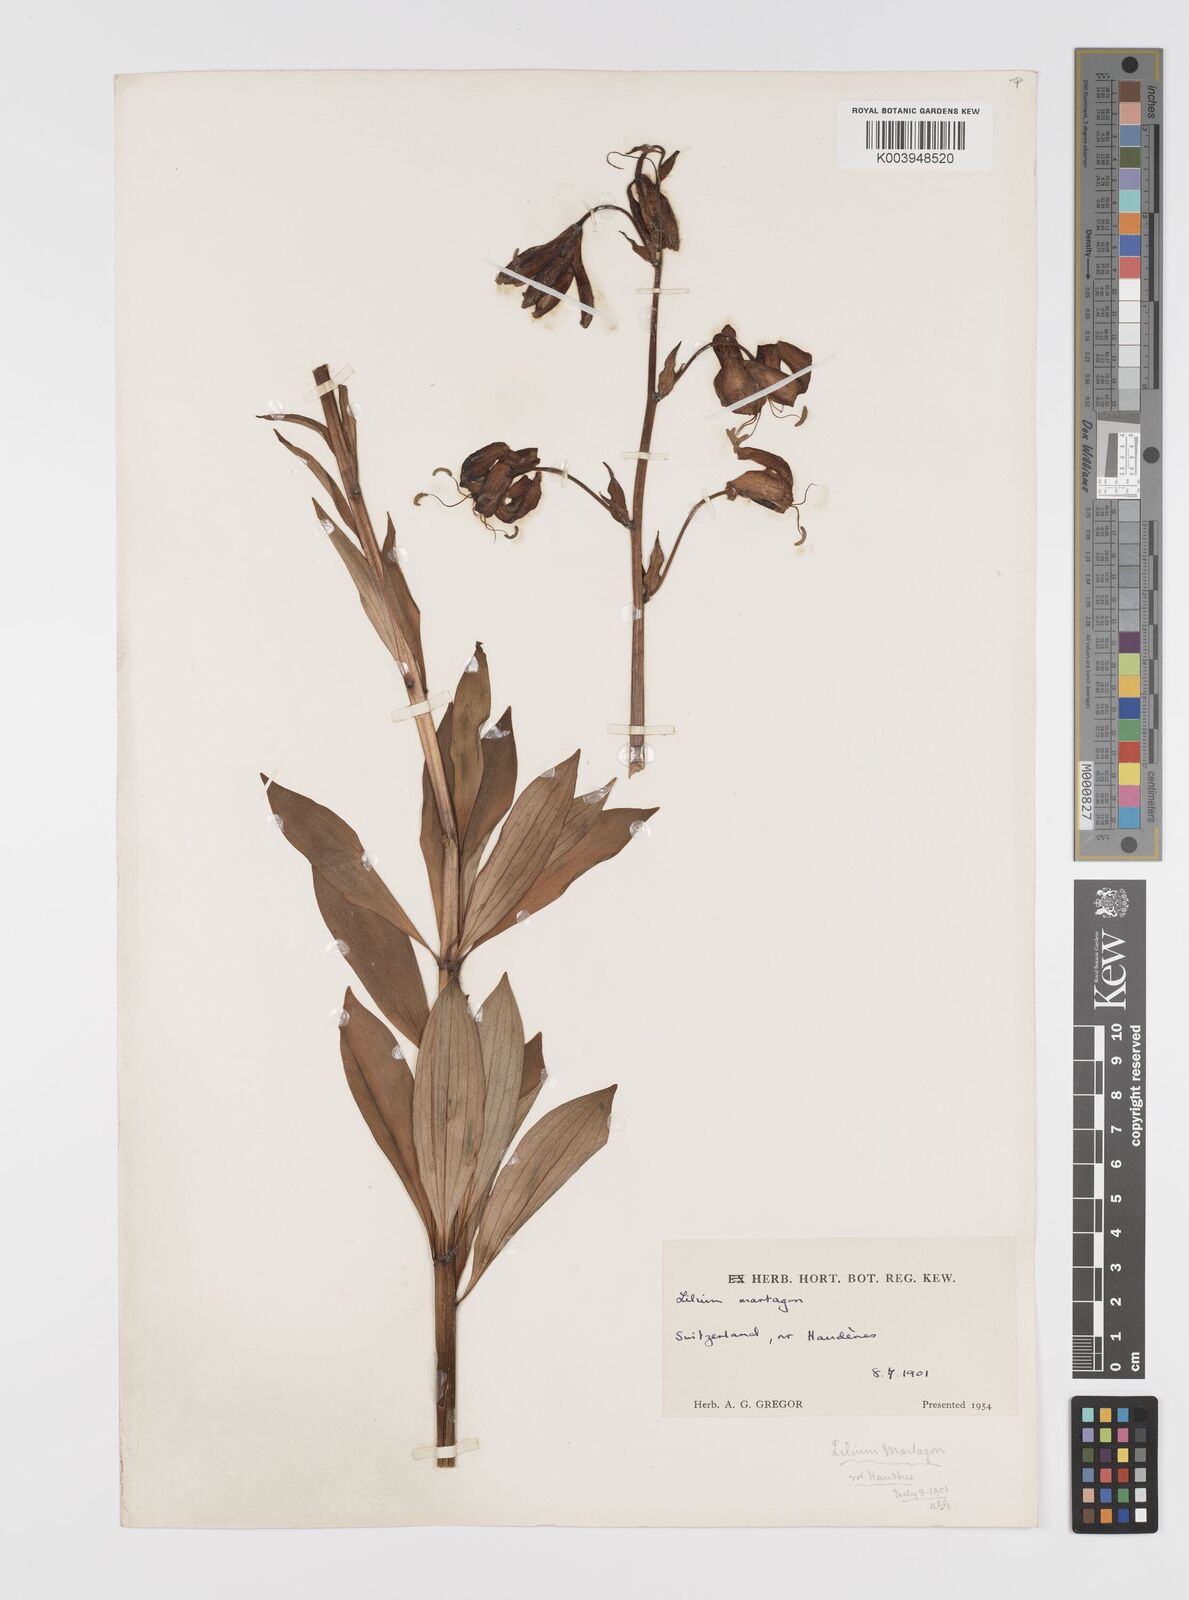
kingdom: Plantae
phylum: Tracheophyta
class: Liliopsida
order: Liliales
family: Liliaceae
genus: Lilium
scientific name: Lilium martagon
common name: Martagon lily
